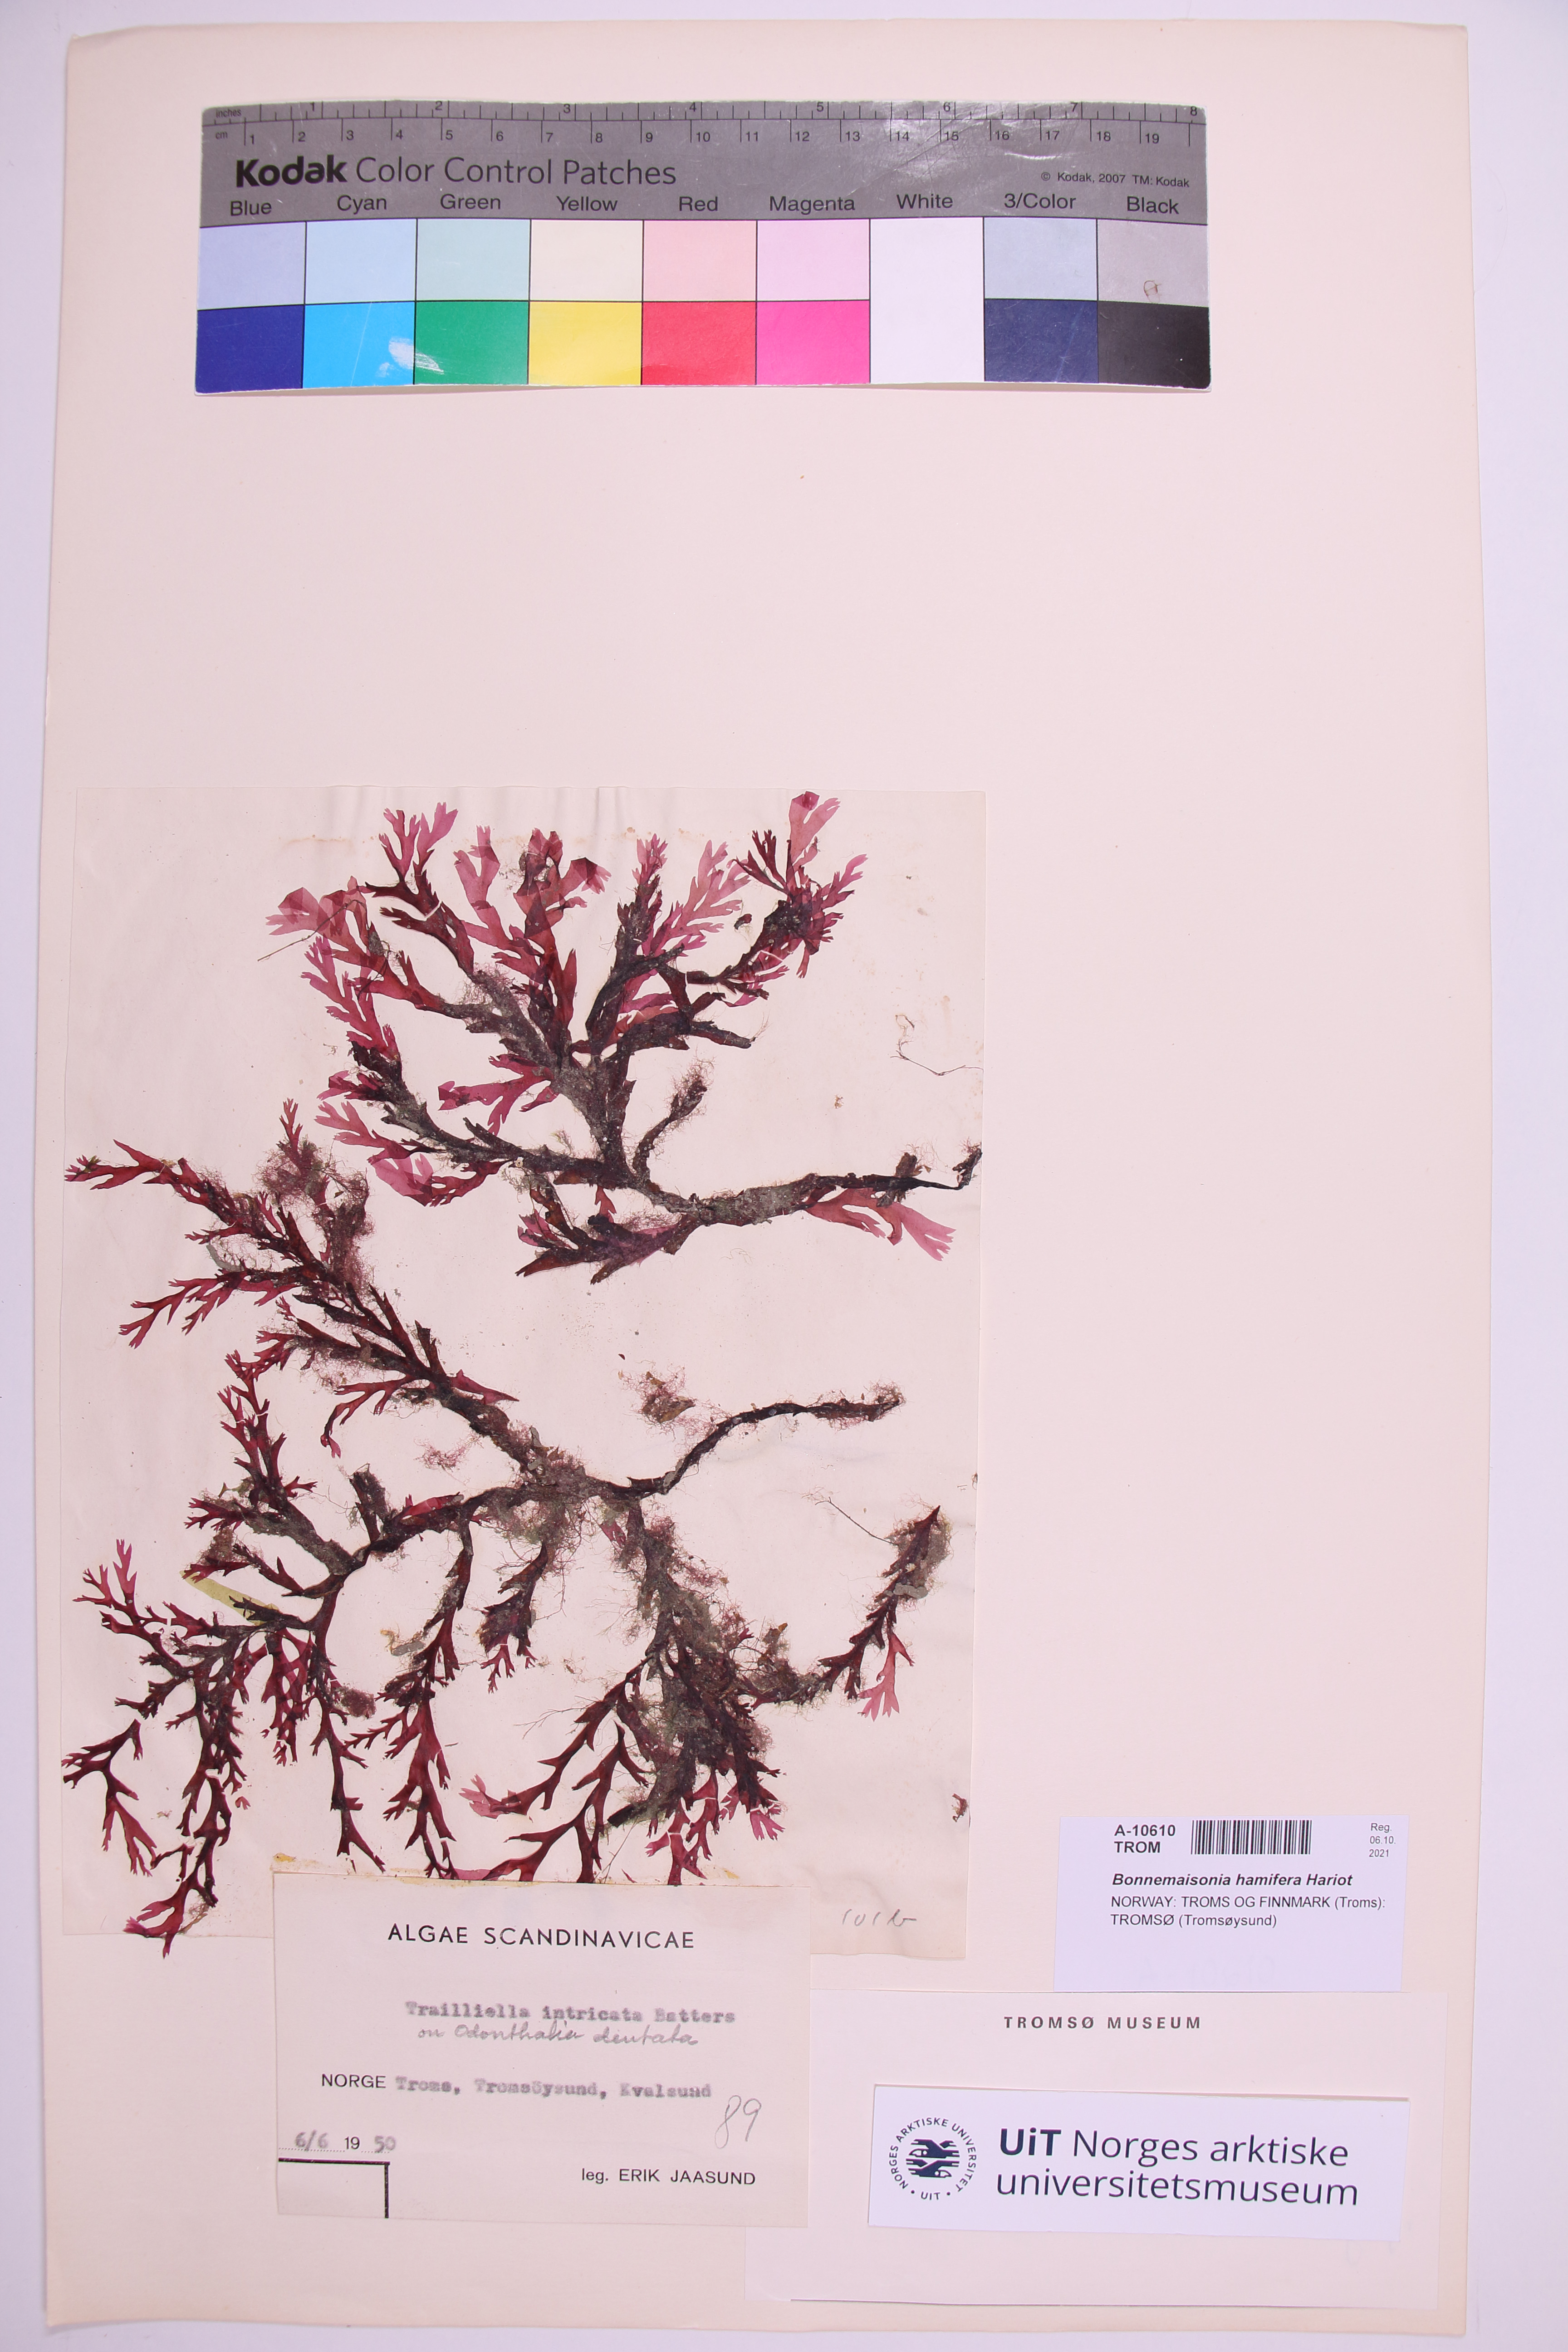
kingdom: Plantae
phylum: Rhodophyta
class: Florideophyceae
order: Bonnemaisoniales
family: Bonnemaisoniaceae
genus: Bonnemaisonia
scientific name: Bonnemaisonia hamifera
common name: Bonnemaison's hook weed
